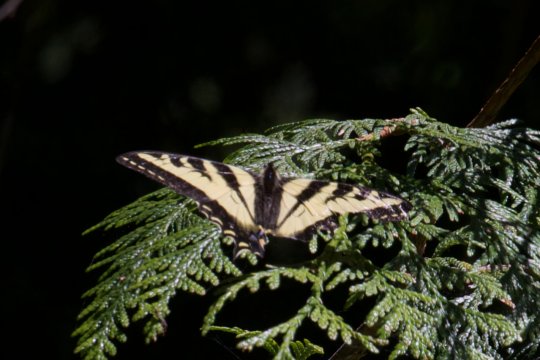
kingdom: Animalia
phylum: Arthropoda
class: Insecta
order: Lepidoptera
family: Papilionidae
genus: Pterourus
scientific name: Pterourus rutulus
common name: Western Tiger Swallowtail
